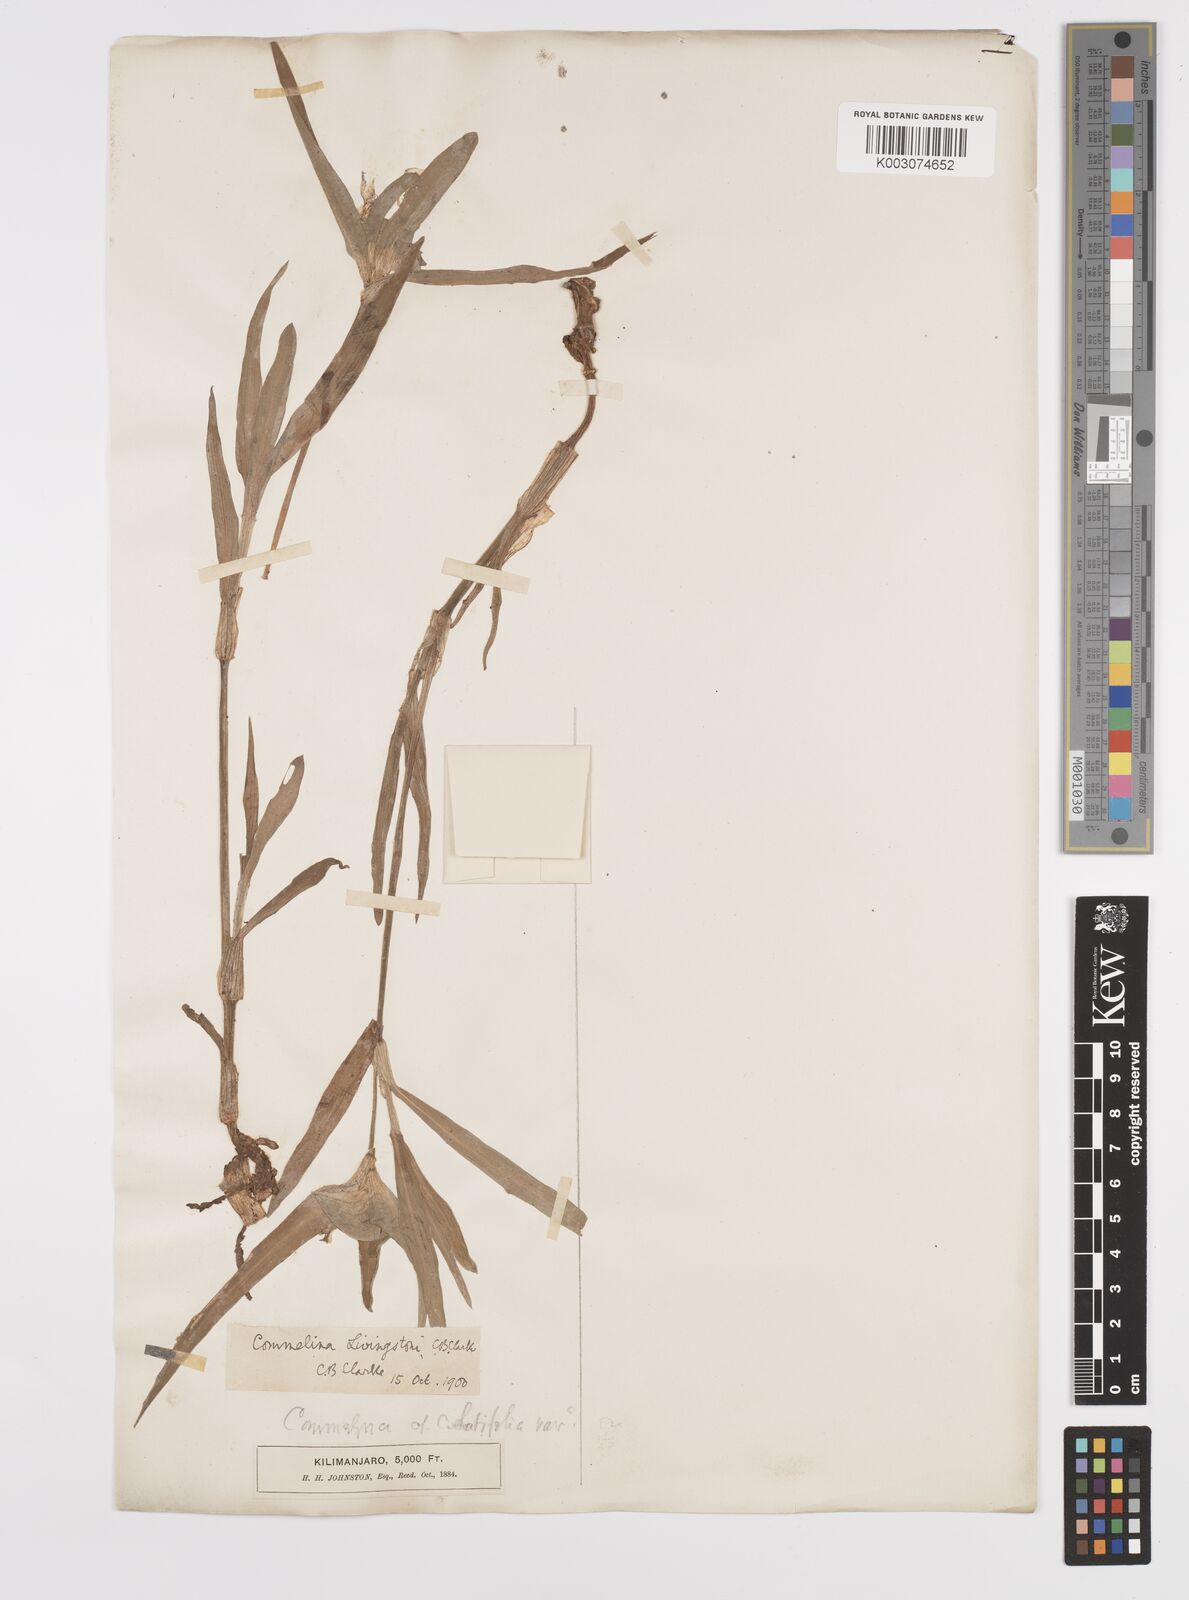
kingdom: Plantae
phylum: Tracheophyta
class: Liliopsida
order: Commelinales
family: Commelinaceae
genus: Commelina
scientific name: Commelina erecta
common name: Blousel blommetjie
